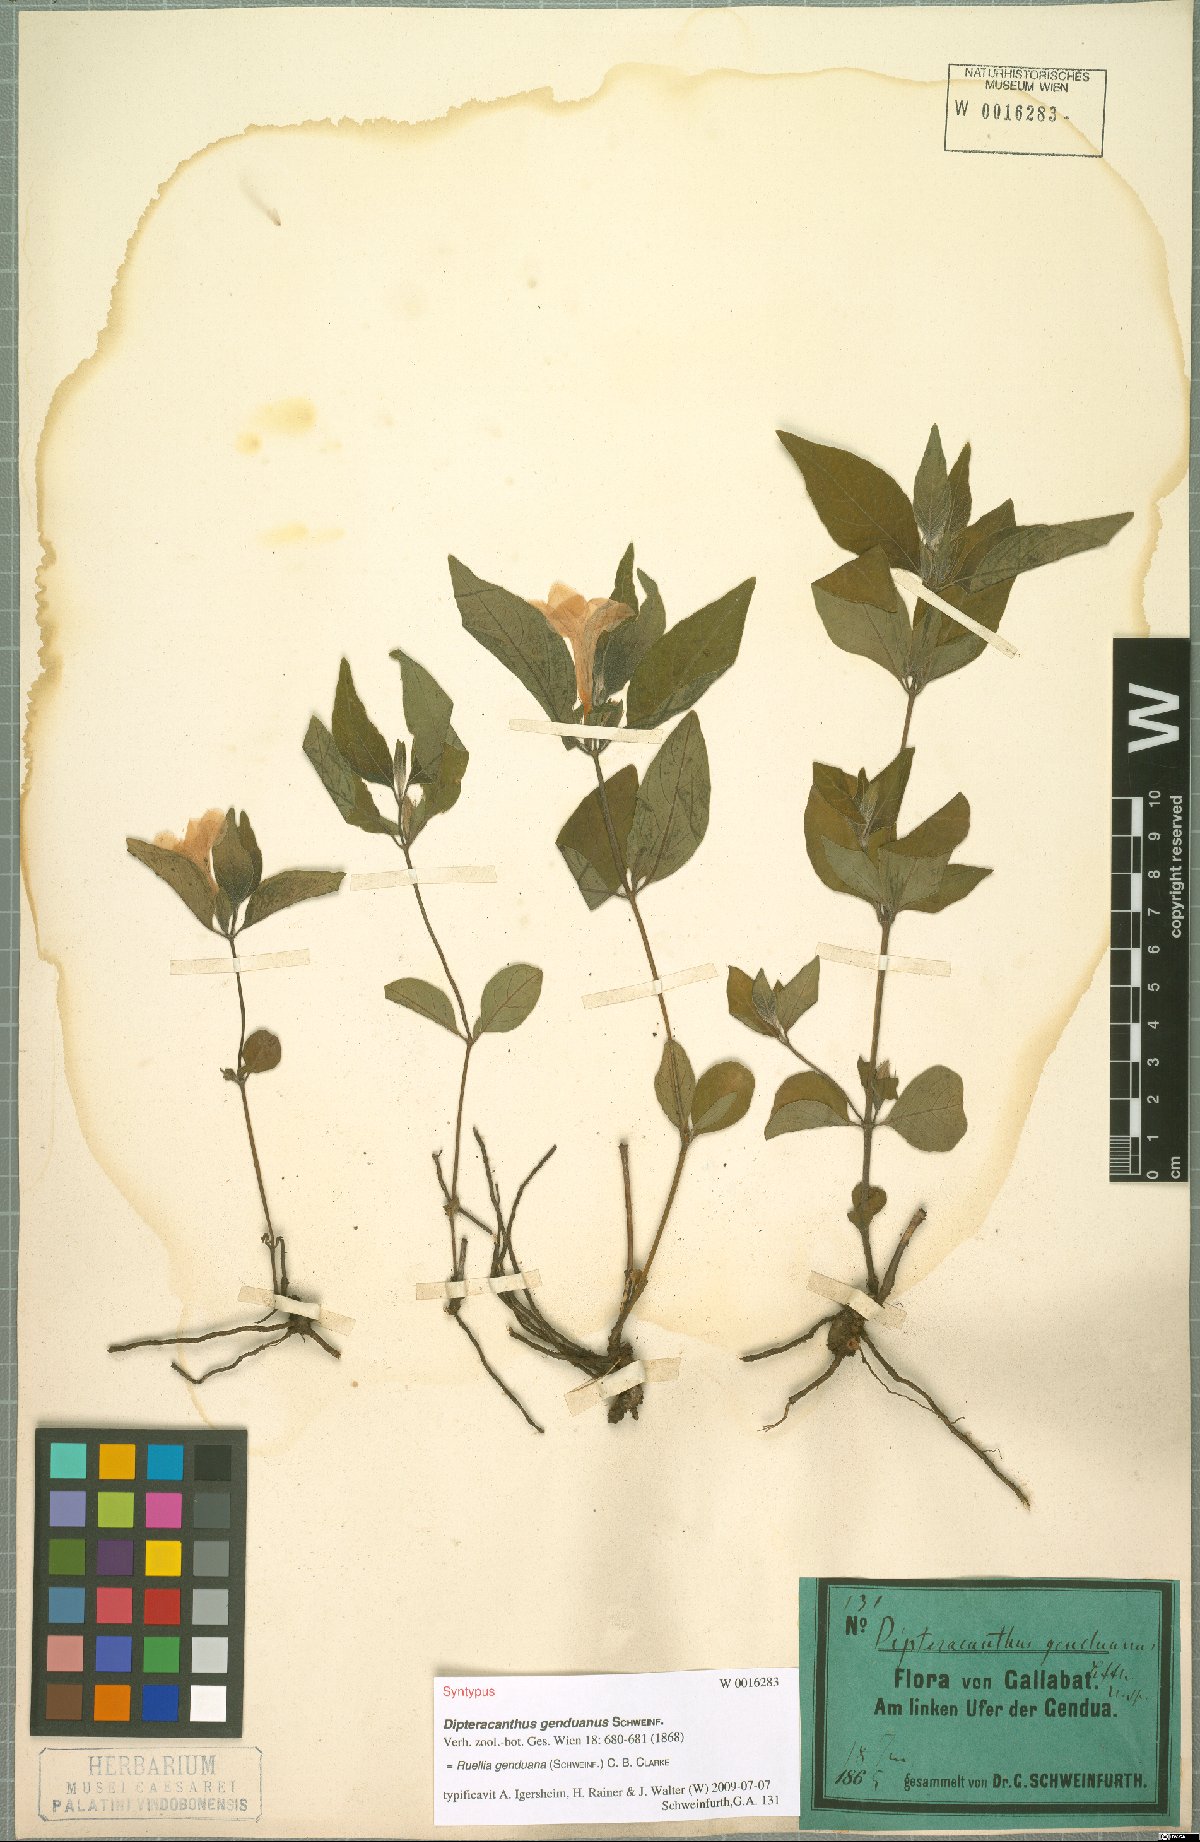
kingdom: Plantae
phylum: Tracheophyta
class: Magnoliopsida
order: Lamiales
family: Acanthaceae
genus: Ruellia
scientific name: Ruellia prostrata
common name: Prostrate wild petunia
